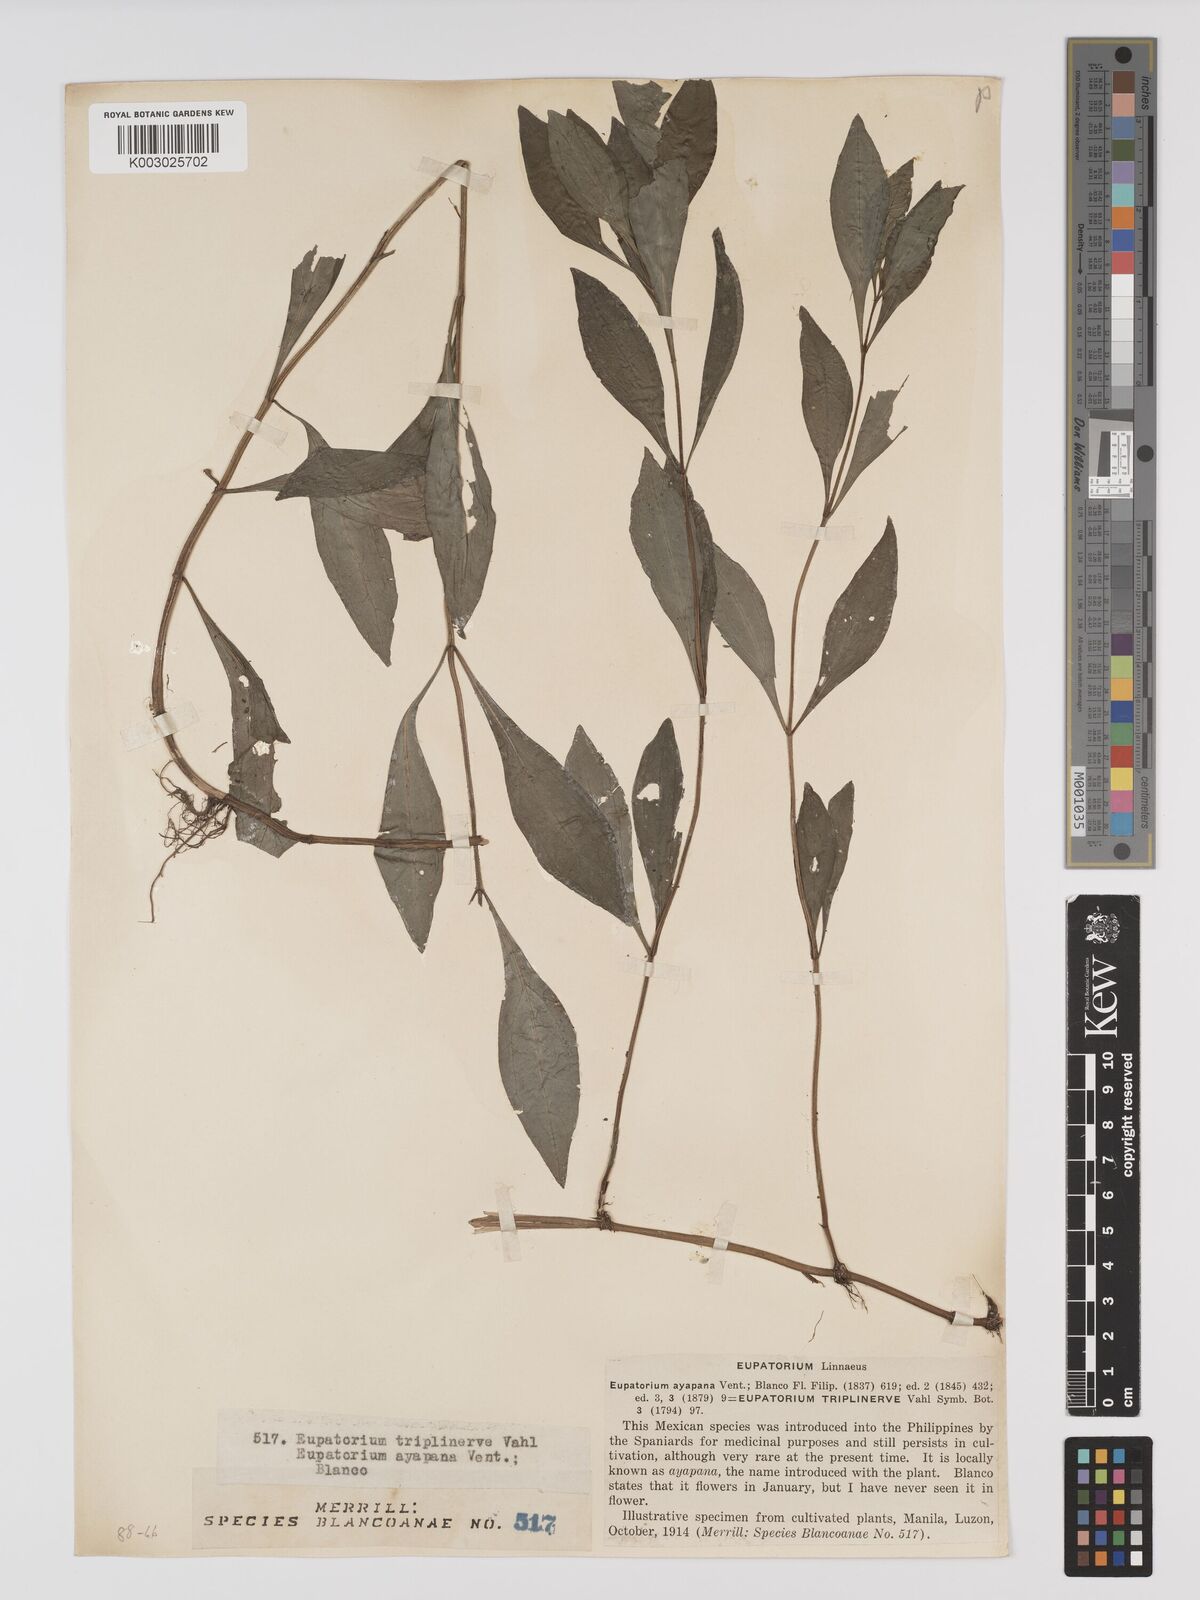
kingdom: Plantae
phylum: Tracheophyta
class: Magnoliopsida
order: Asterales
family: Asteraceae
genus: Ayapana
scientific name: Ayapana triplinervis
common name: Triplinerved eupatorium
